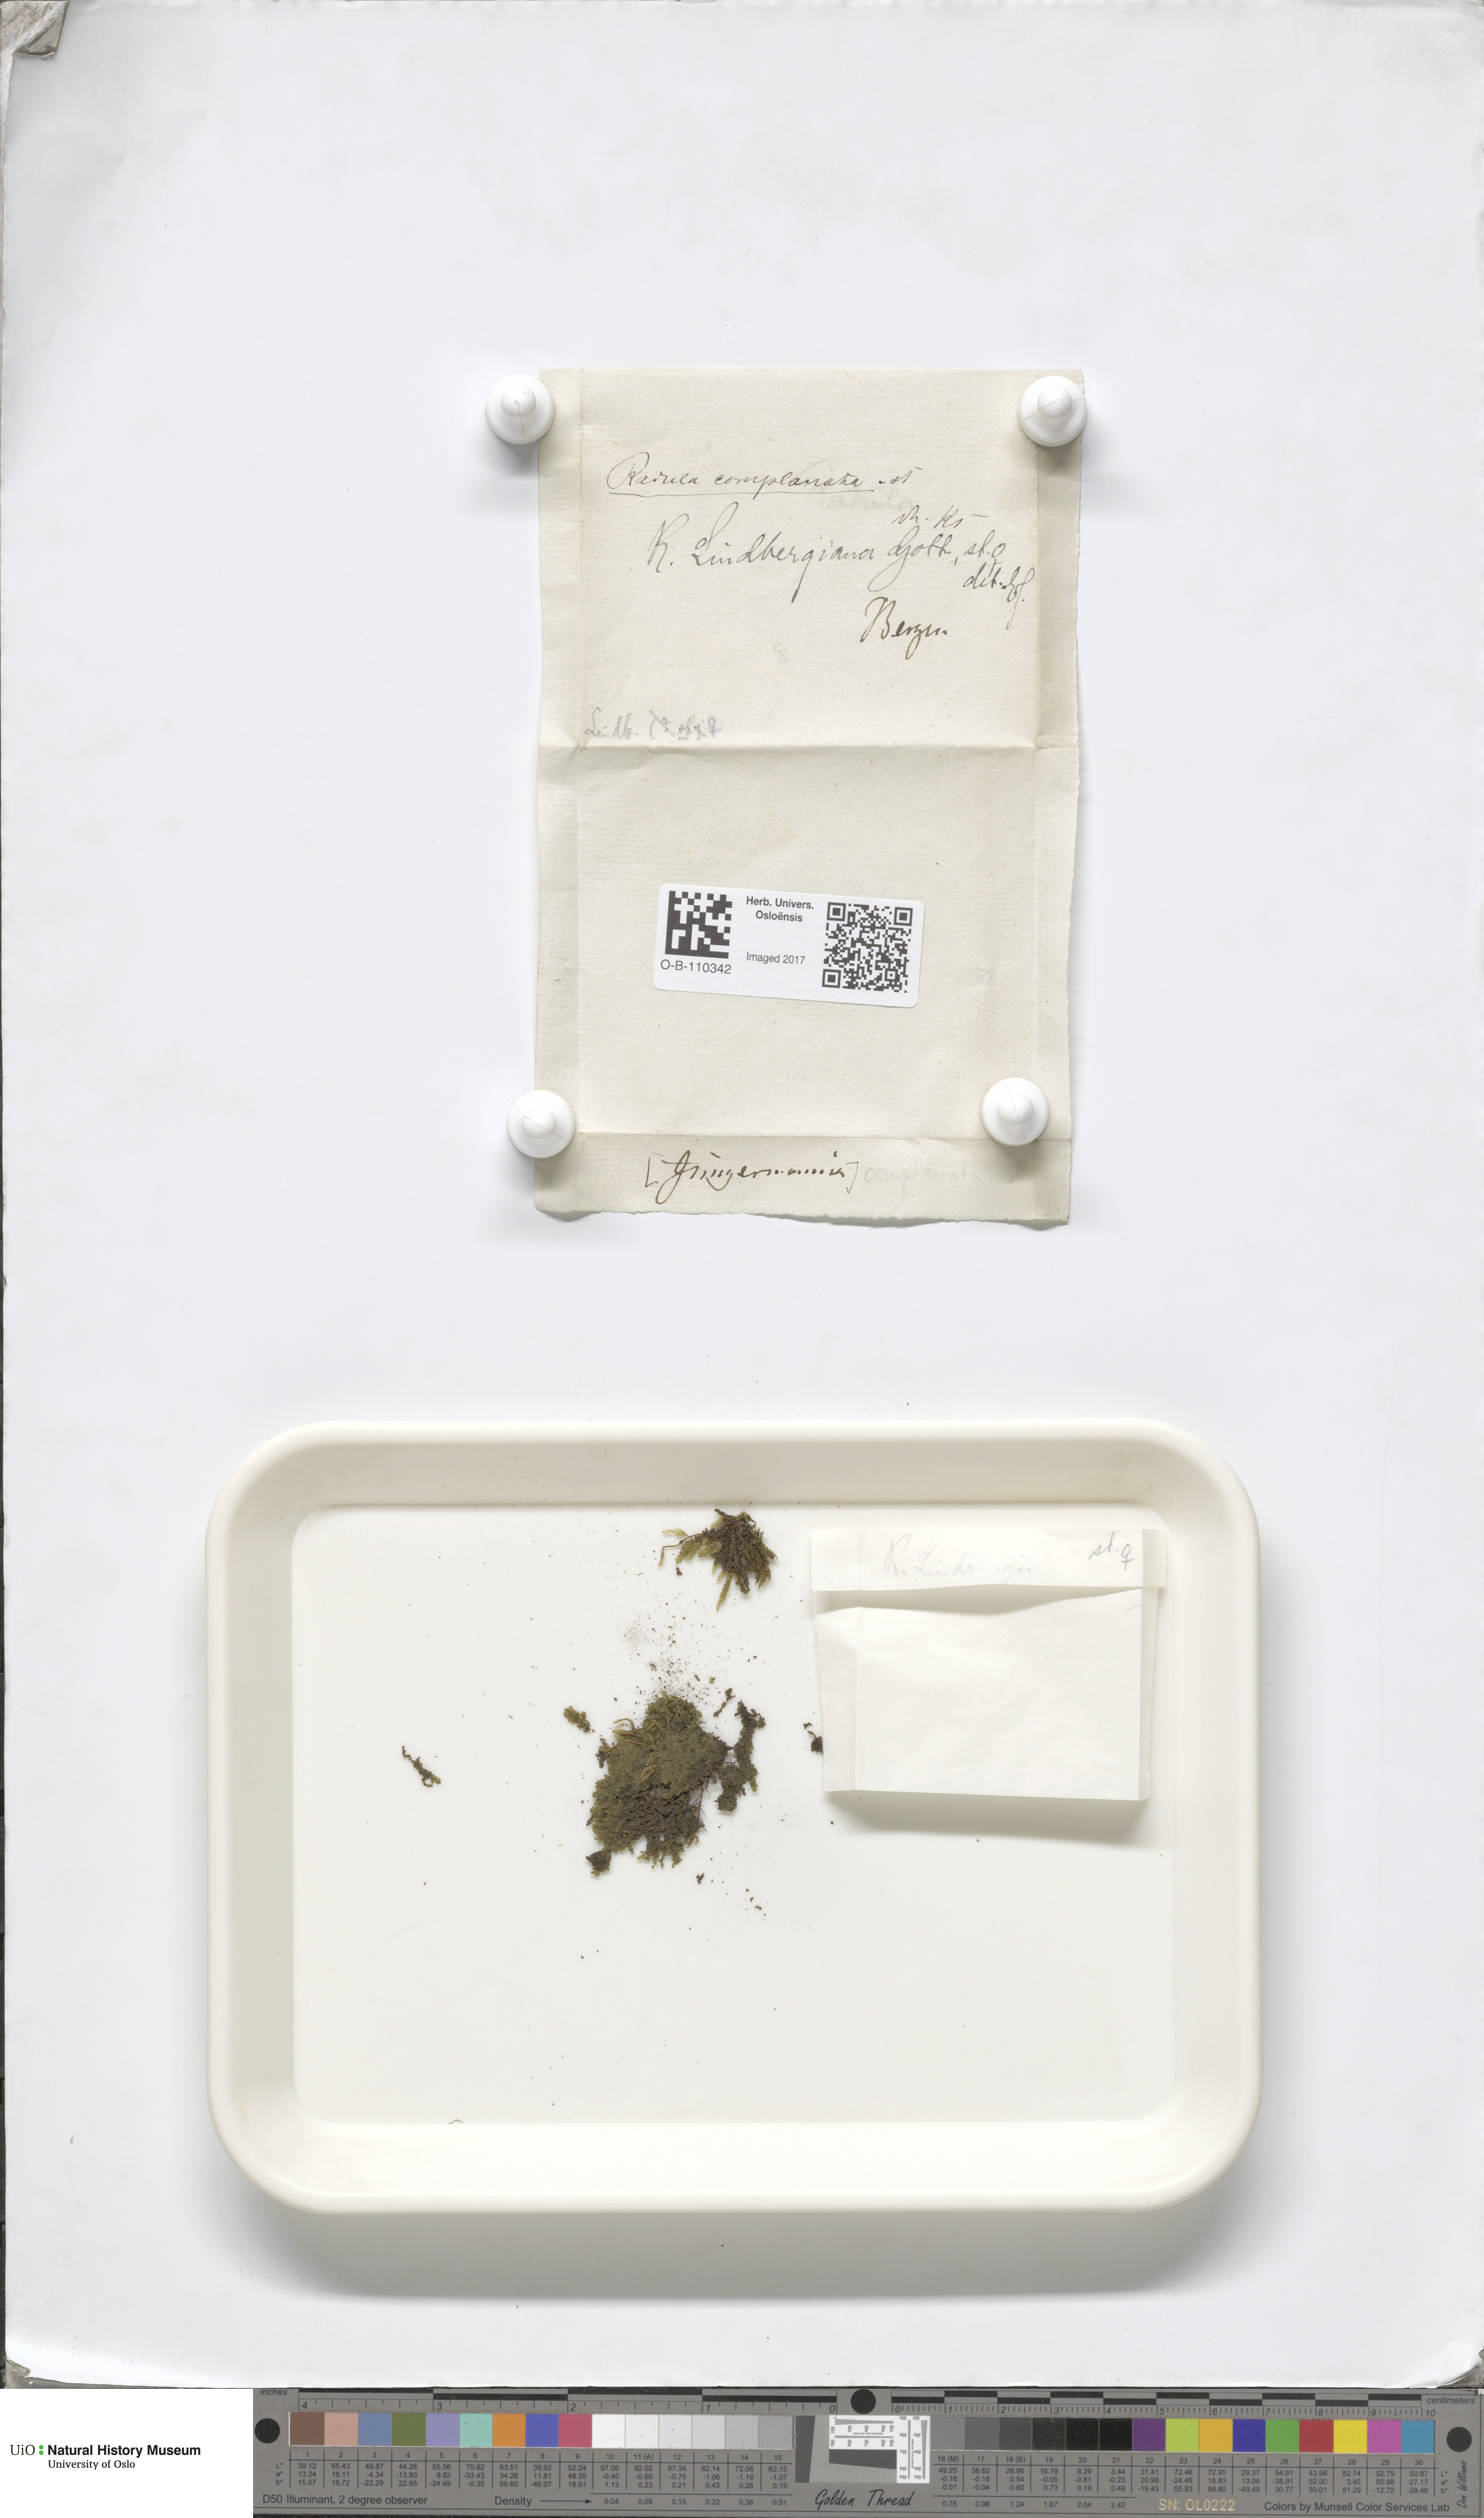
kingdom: Plantae
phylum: Marchantiophyta
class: Jungermanniopsida
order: Porellales
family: Radulaceae
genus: Radula
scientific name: Radula complanata
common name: Flat-leaved scalewort
